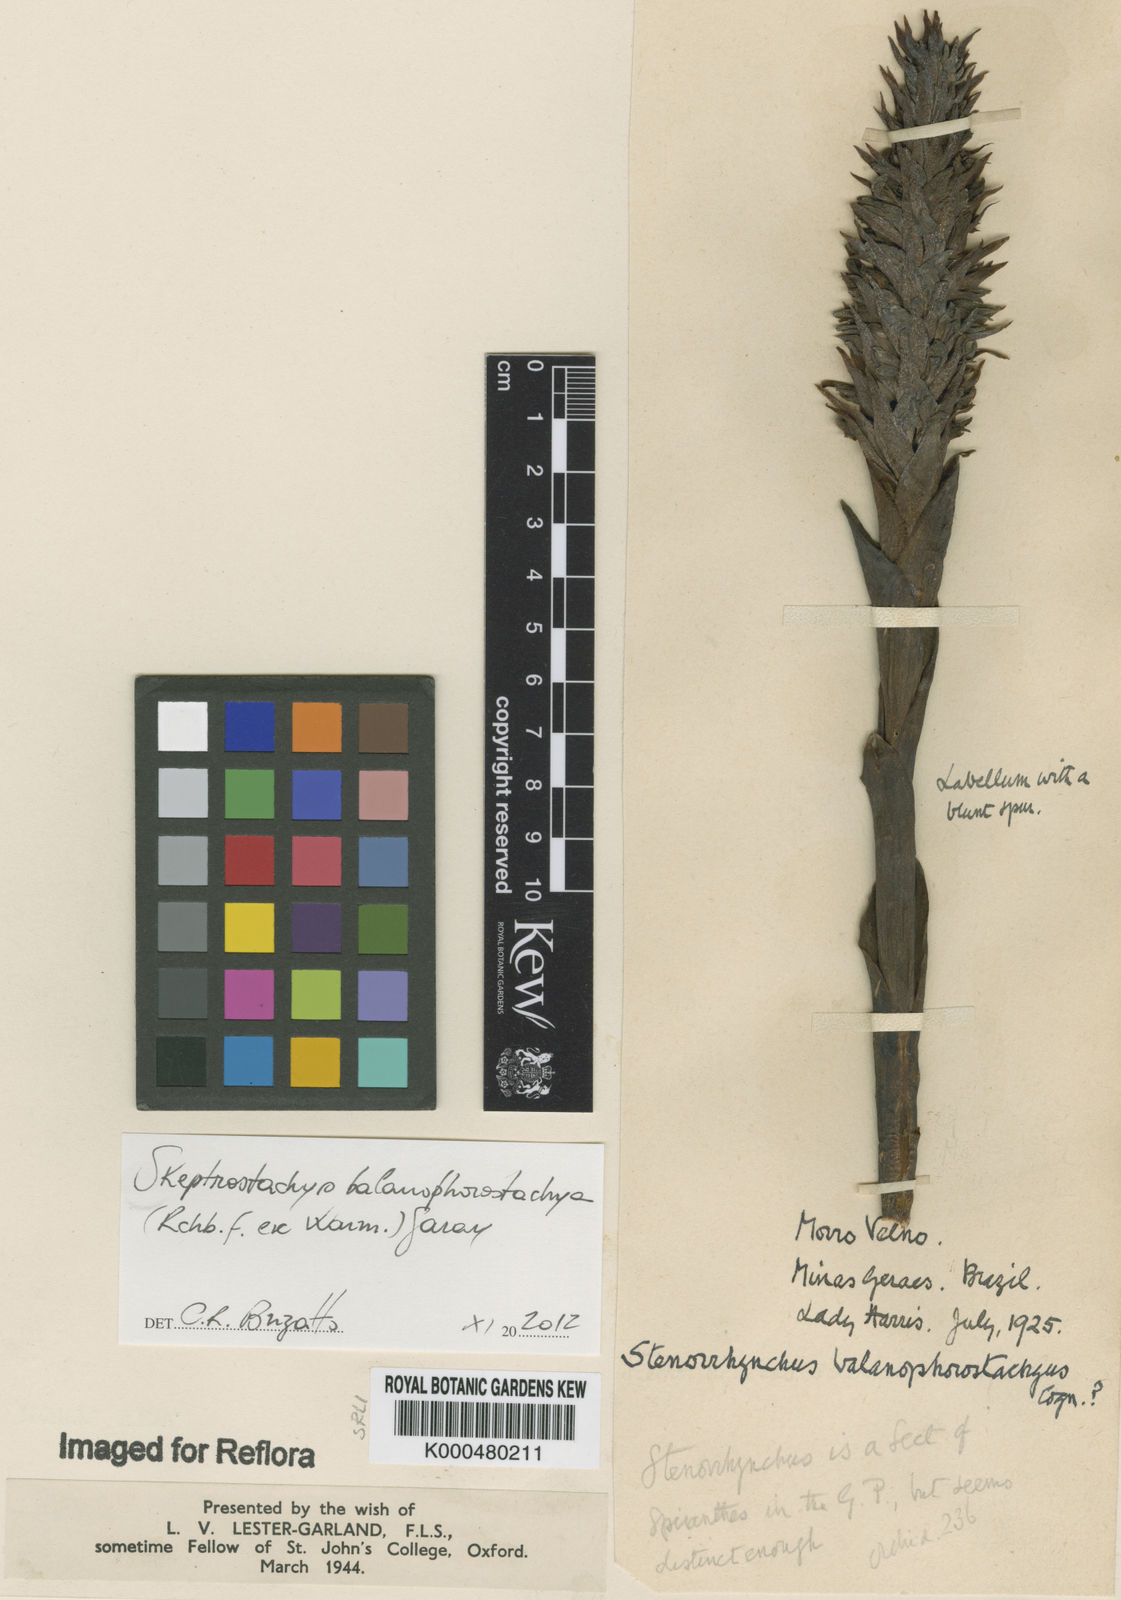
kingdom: Plantae
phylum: Tracheophyta
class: Liliopsida
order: Asparagales
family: Orchidaceae
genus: Skeptrostachys
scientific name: Skeptrostachys arechavaletanii
